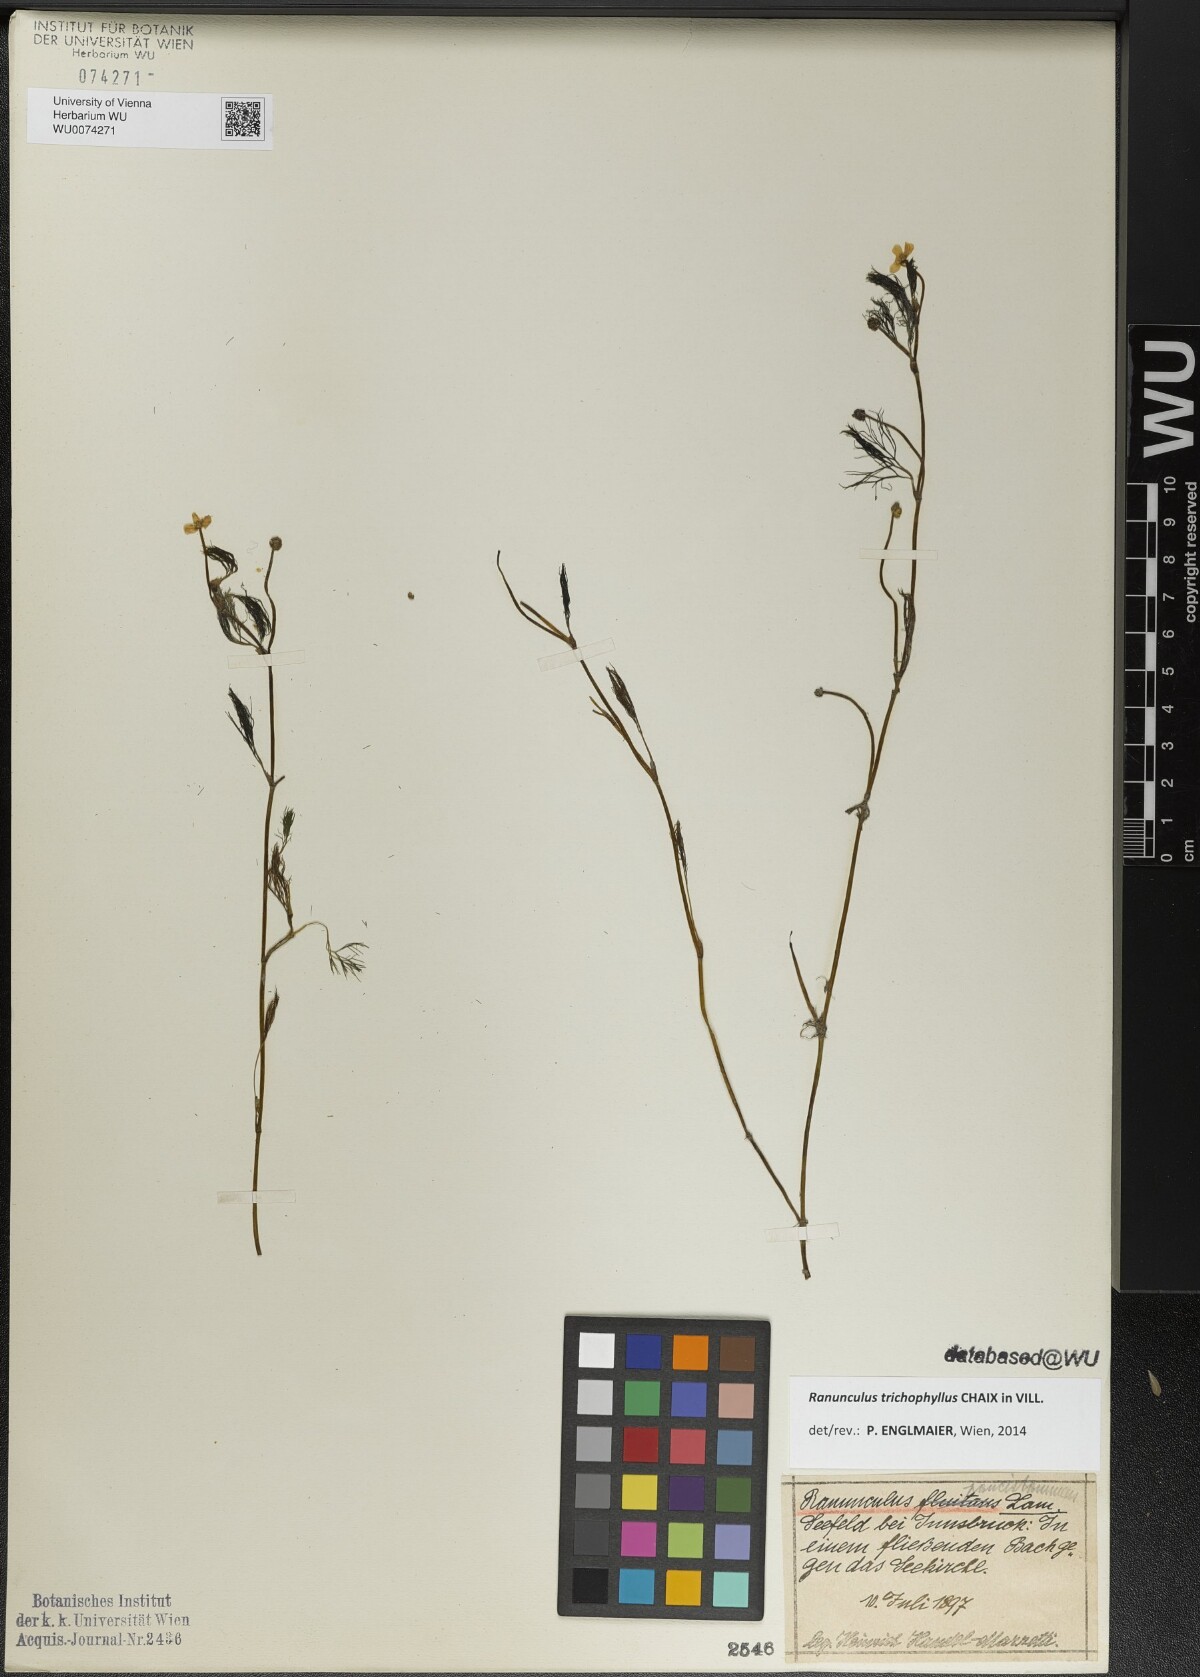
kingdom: Plantae
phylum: Tracheophyta
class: Magnoliopsida
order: Ranunculales
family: Ranunculaceae
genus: Ranunculus
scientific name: Ranunculus trichophyllus
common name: Thread-leaved water-crowfoot
